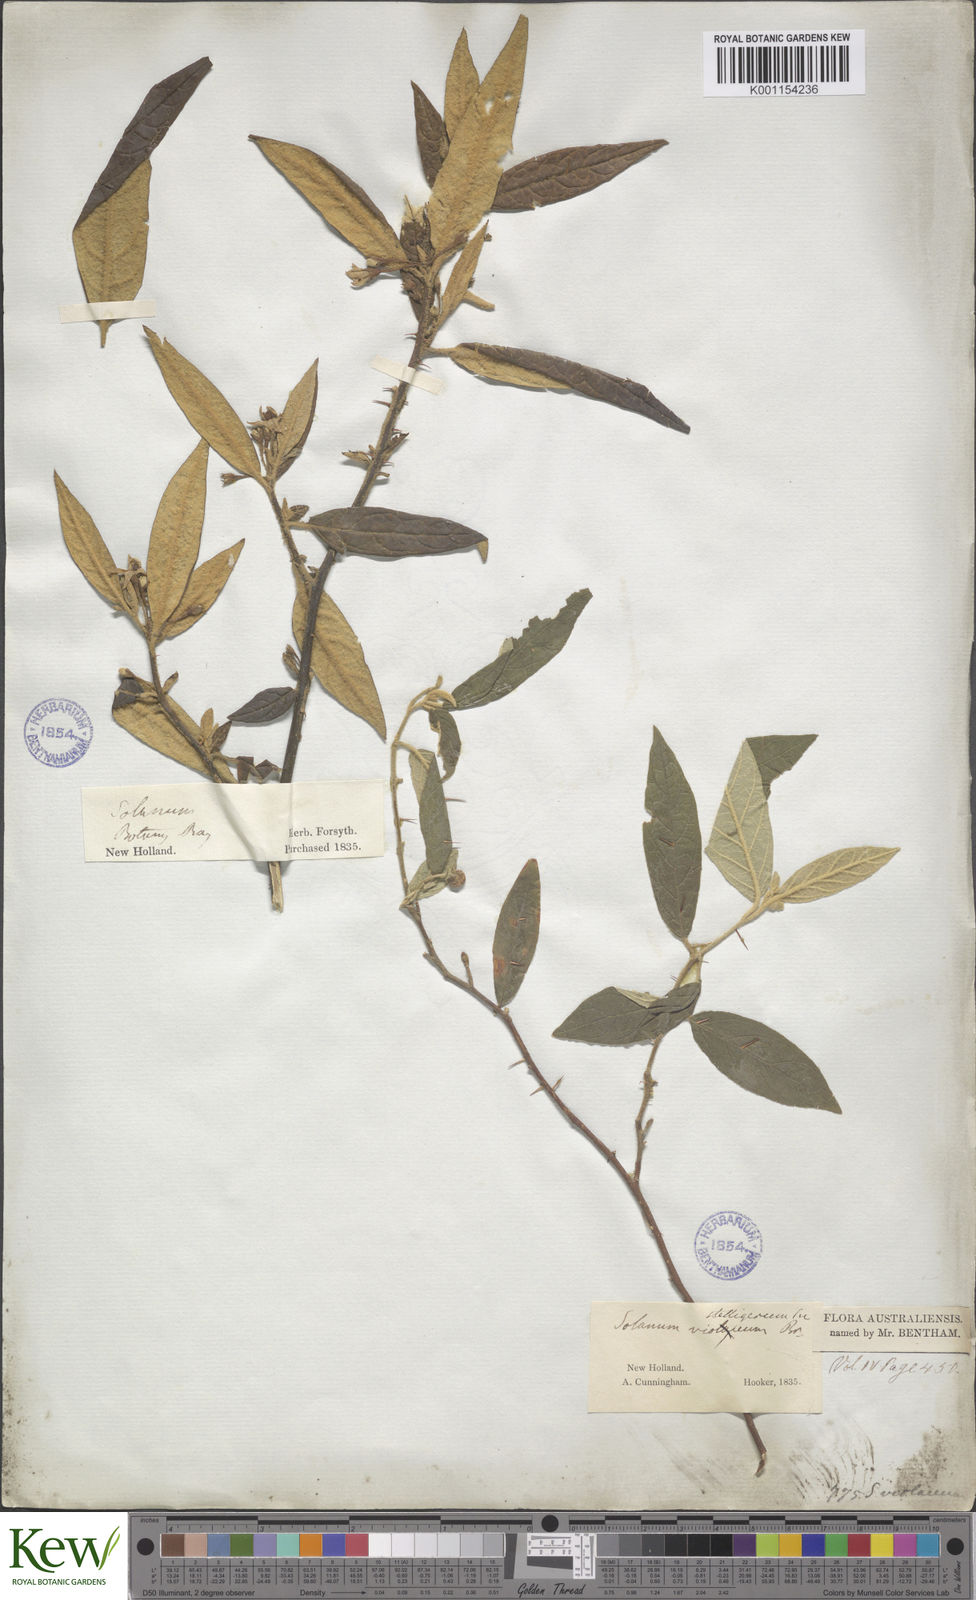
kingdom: Plantae
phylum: Tracheophyta
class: Magnoliopsida
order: Solanales
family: Solanaceae
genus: Solanum
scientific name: Solanum stelligerum
